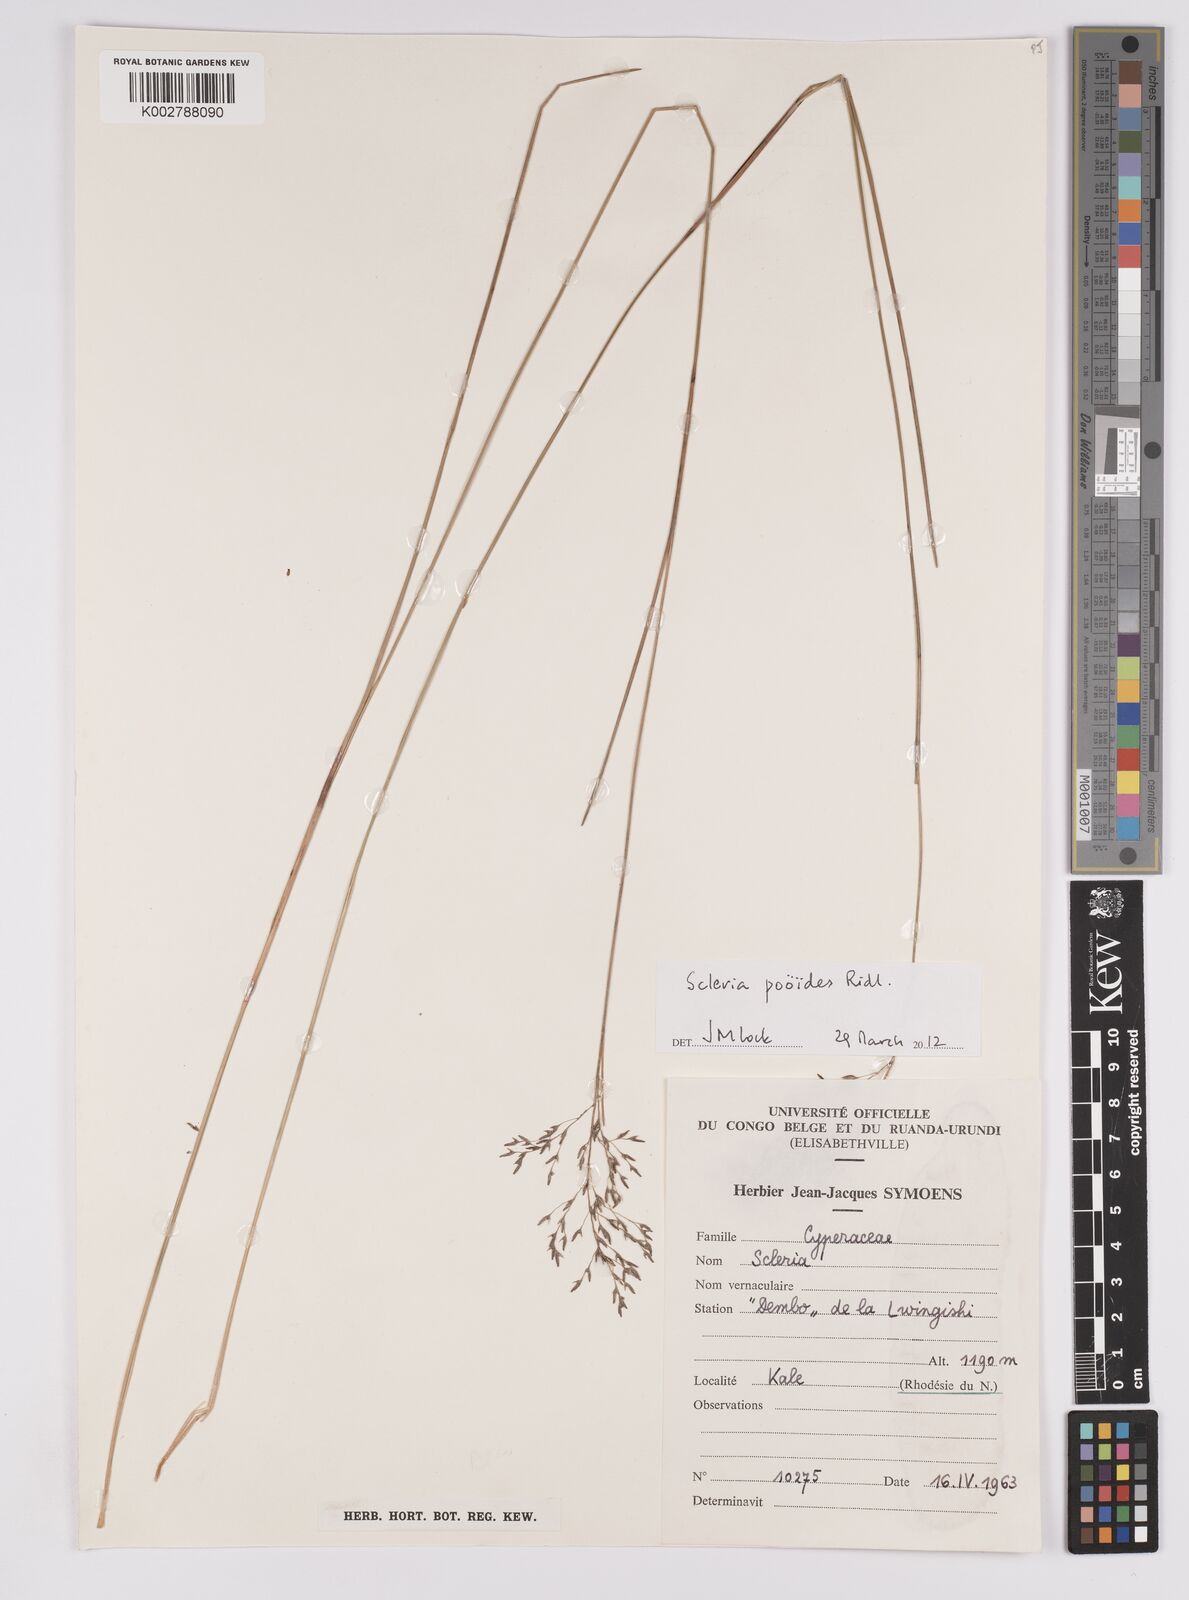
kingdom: Plantae
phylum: Tracheophyta
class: Liliopsida
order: Poales
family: Cyperaceae
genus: Scleria
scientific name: Scleria pooides
